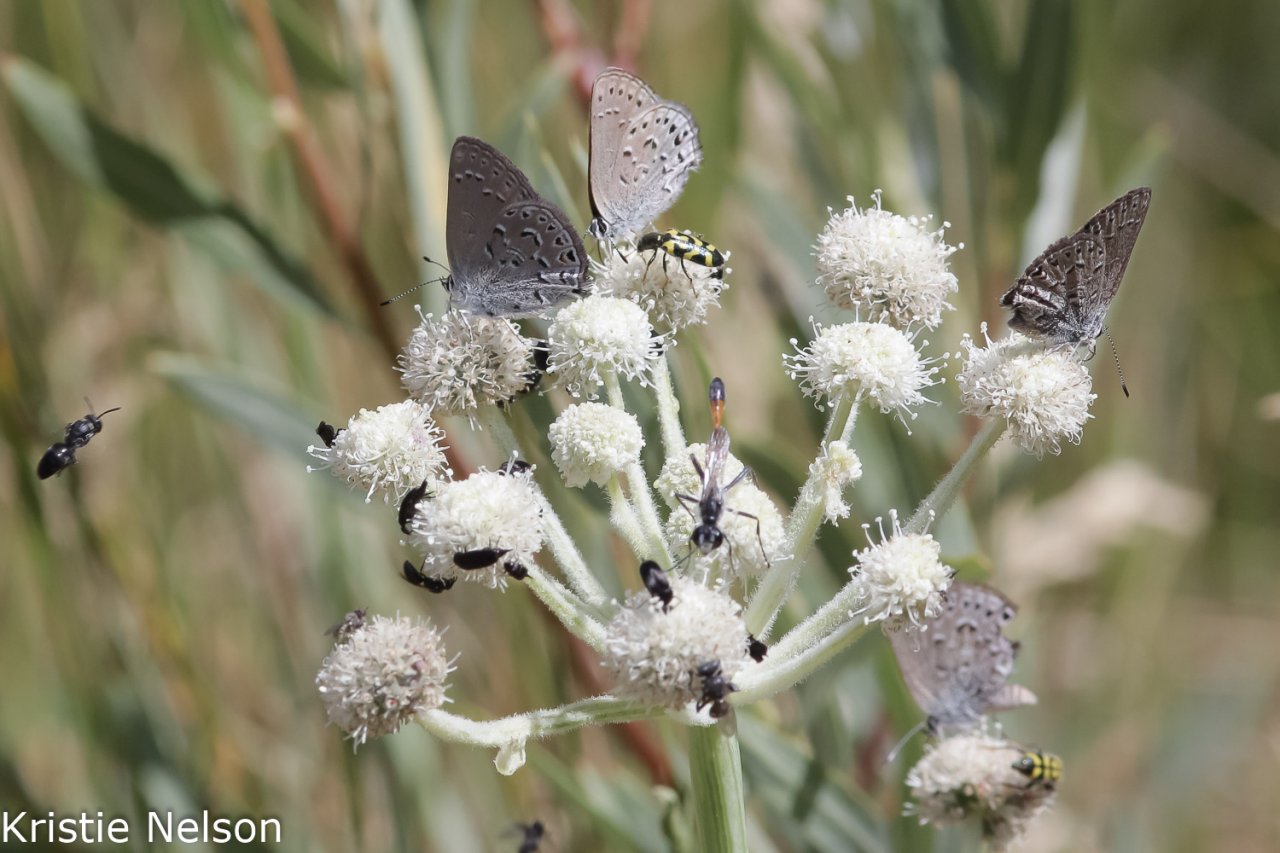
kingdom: Animalia
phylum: Arthropoda
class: Insecta
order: Lepidoptera
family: Lycaenidae
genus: Satyrium
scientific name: Satyrium behrii
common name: Behr's Hairstreak
